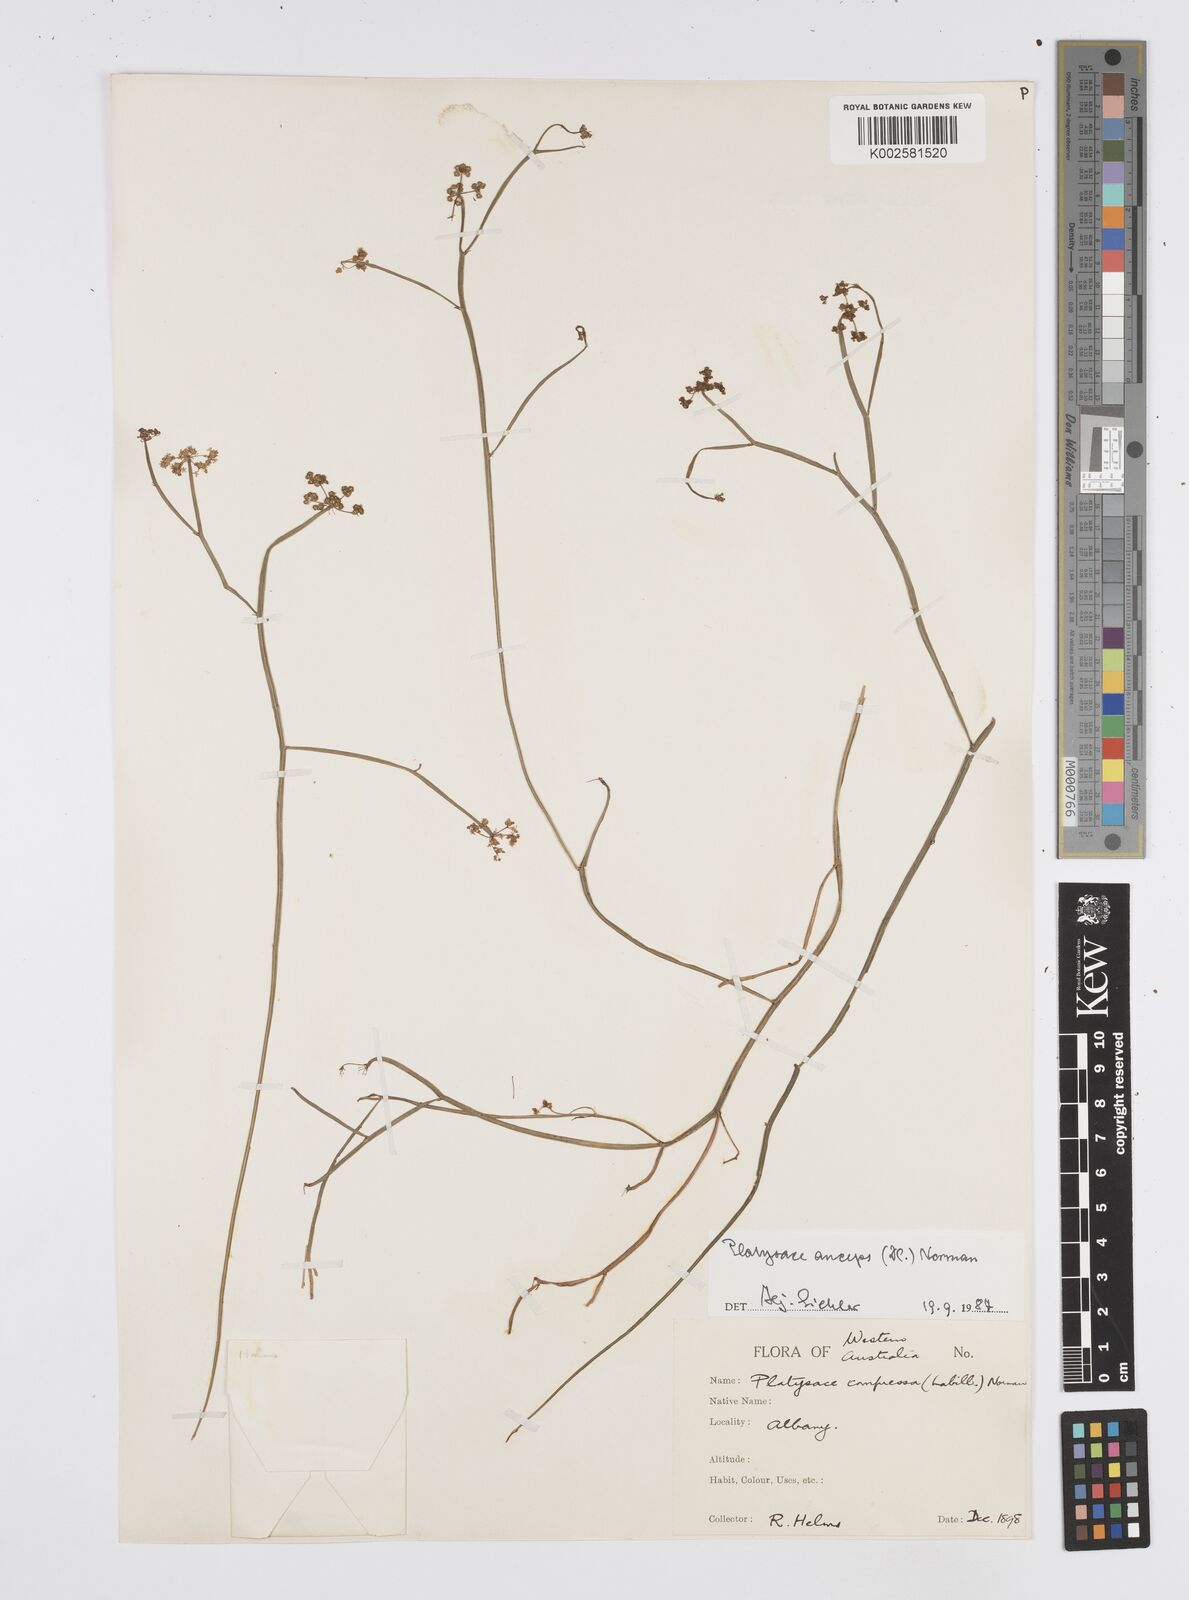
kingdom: Plantae
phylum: Tracheophyta
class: Magnoliopsida
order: Apiales
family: Apiaceae
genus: Centella
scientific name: Centella
